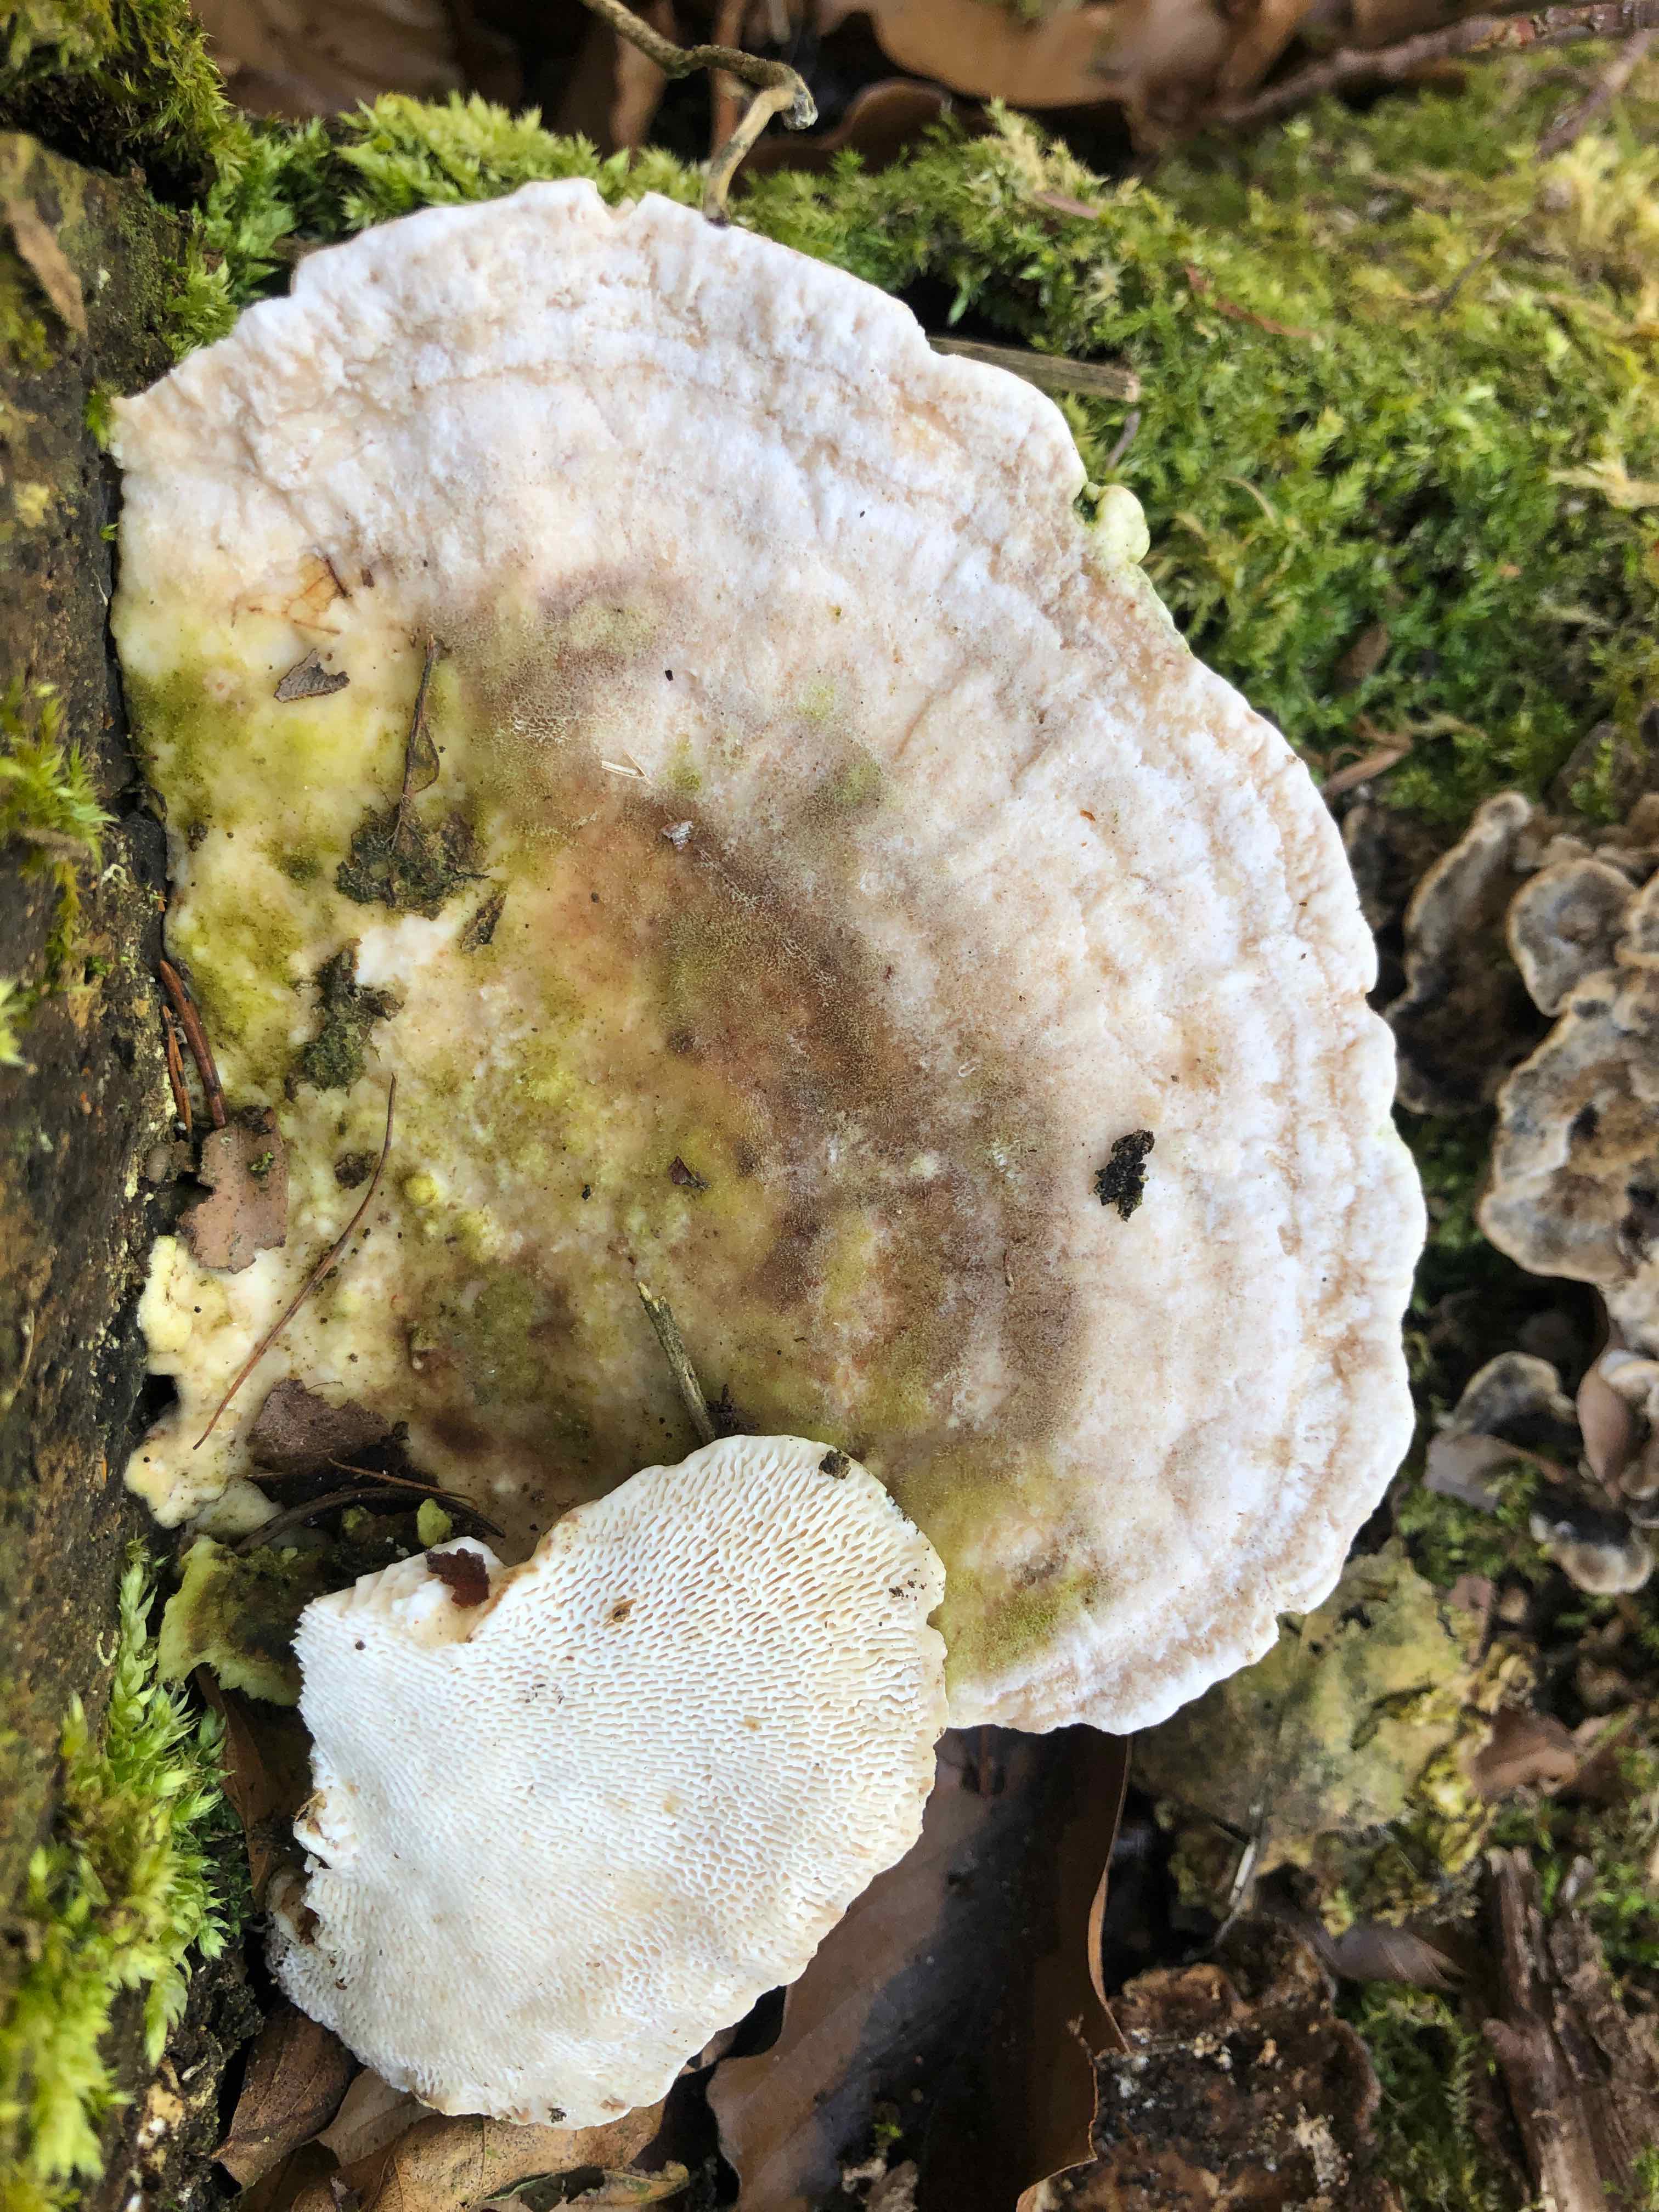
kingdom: Fungi
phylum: Basidiomycota
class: Agaricomycetes
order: Polyporales
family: Polyporaceae
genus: Trametes
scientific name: Trametes gibbosa
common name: puklet læderporesvamp
